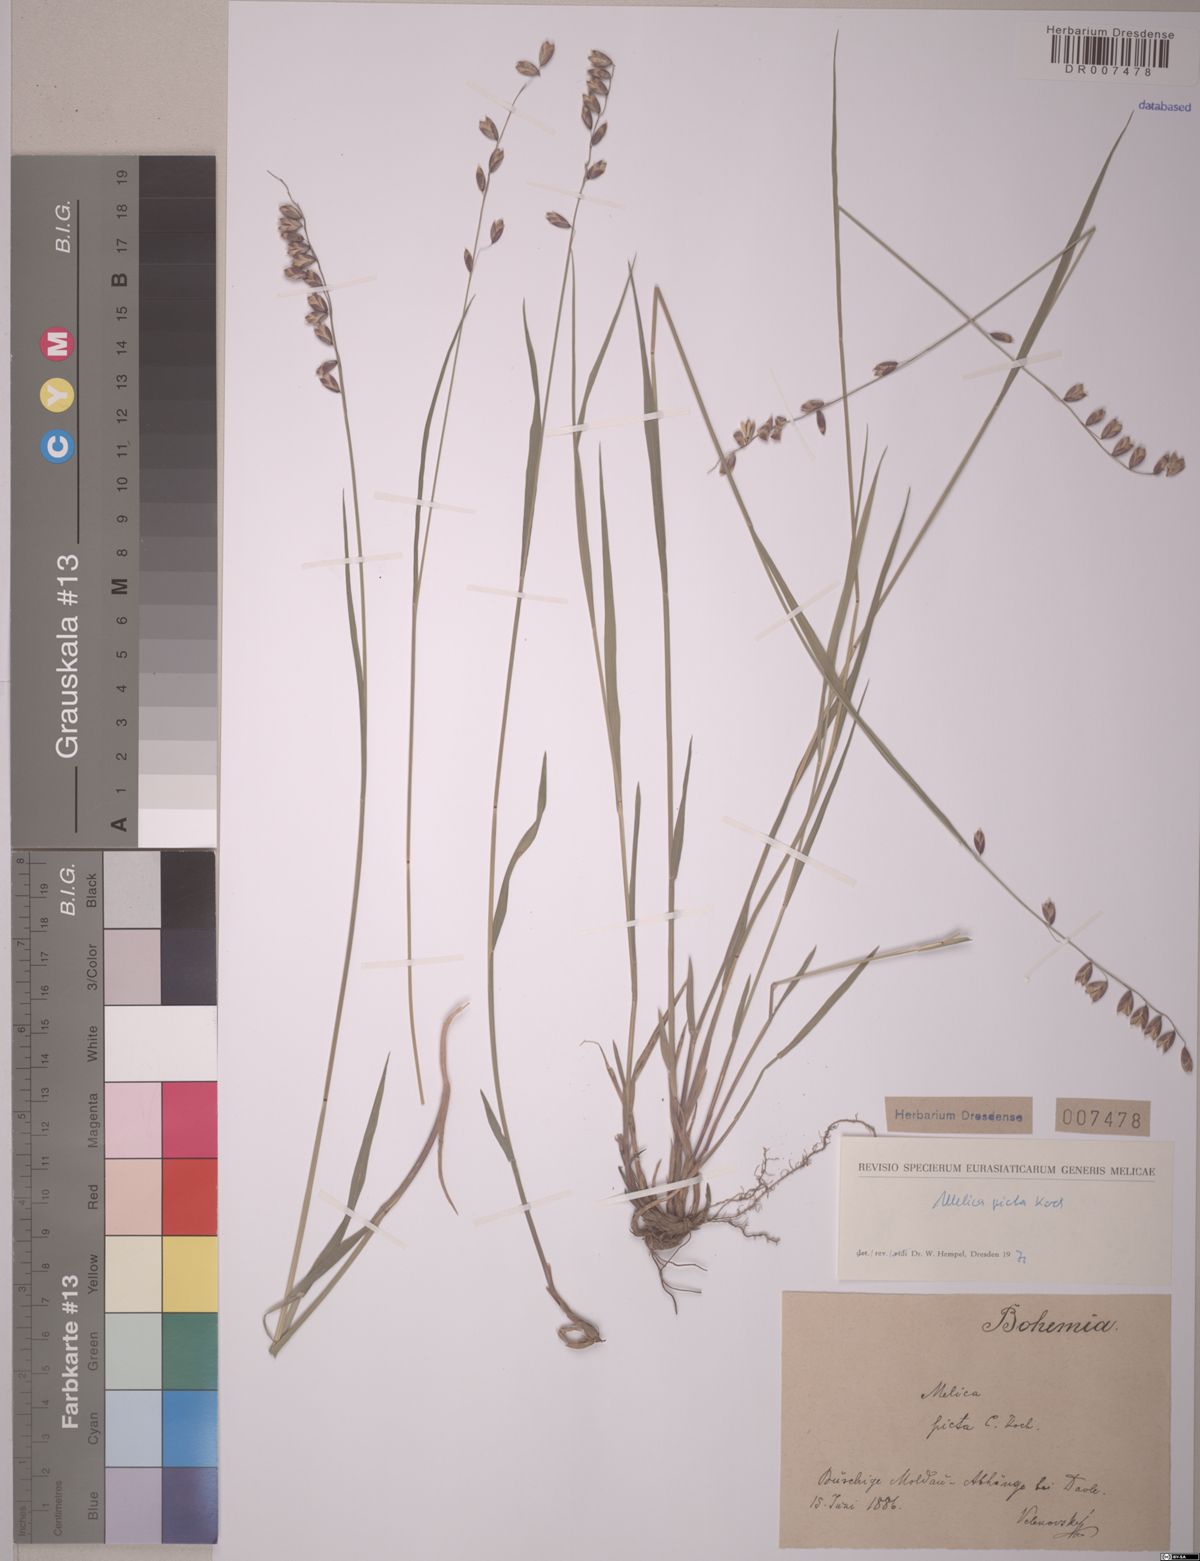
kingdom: Plantae
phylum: Tracheophyta
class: Liliopsida
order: Poales
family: Poaceae
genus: Melica
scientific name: Melica picta
